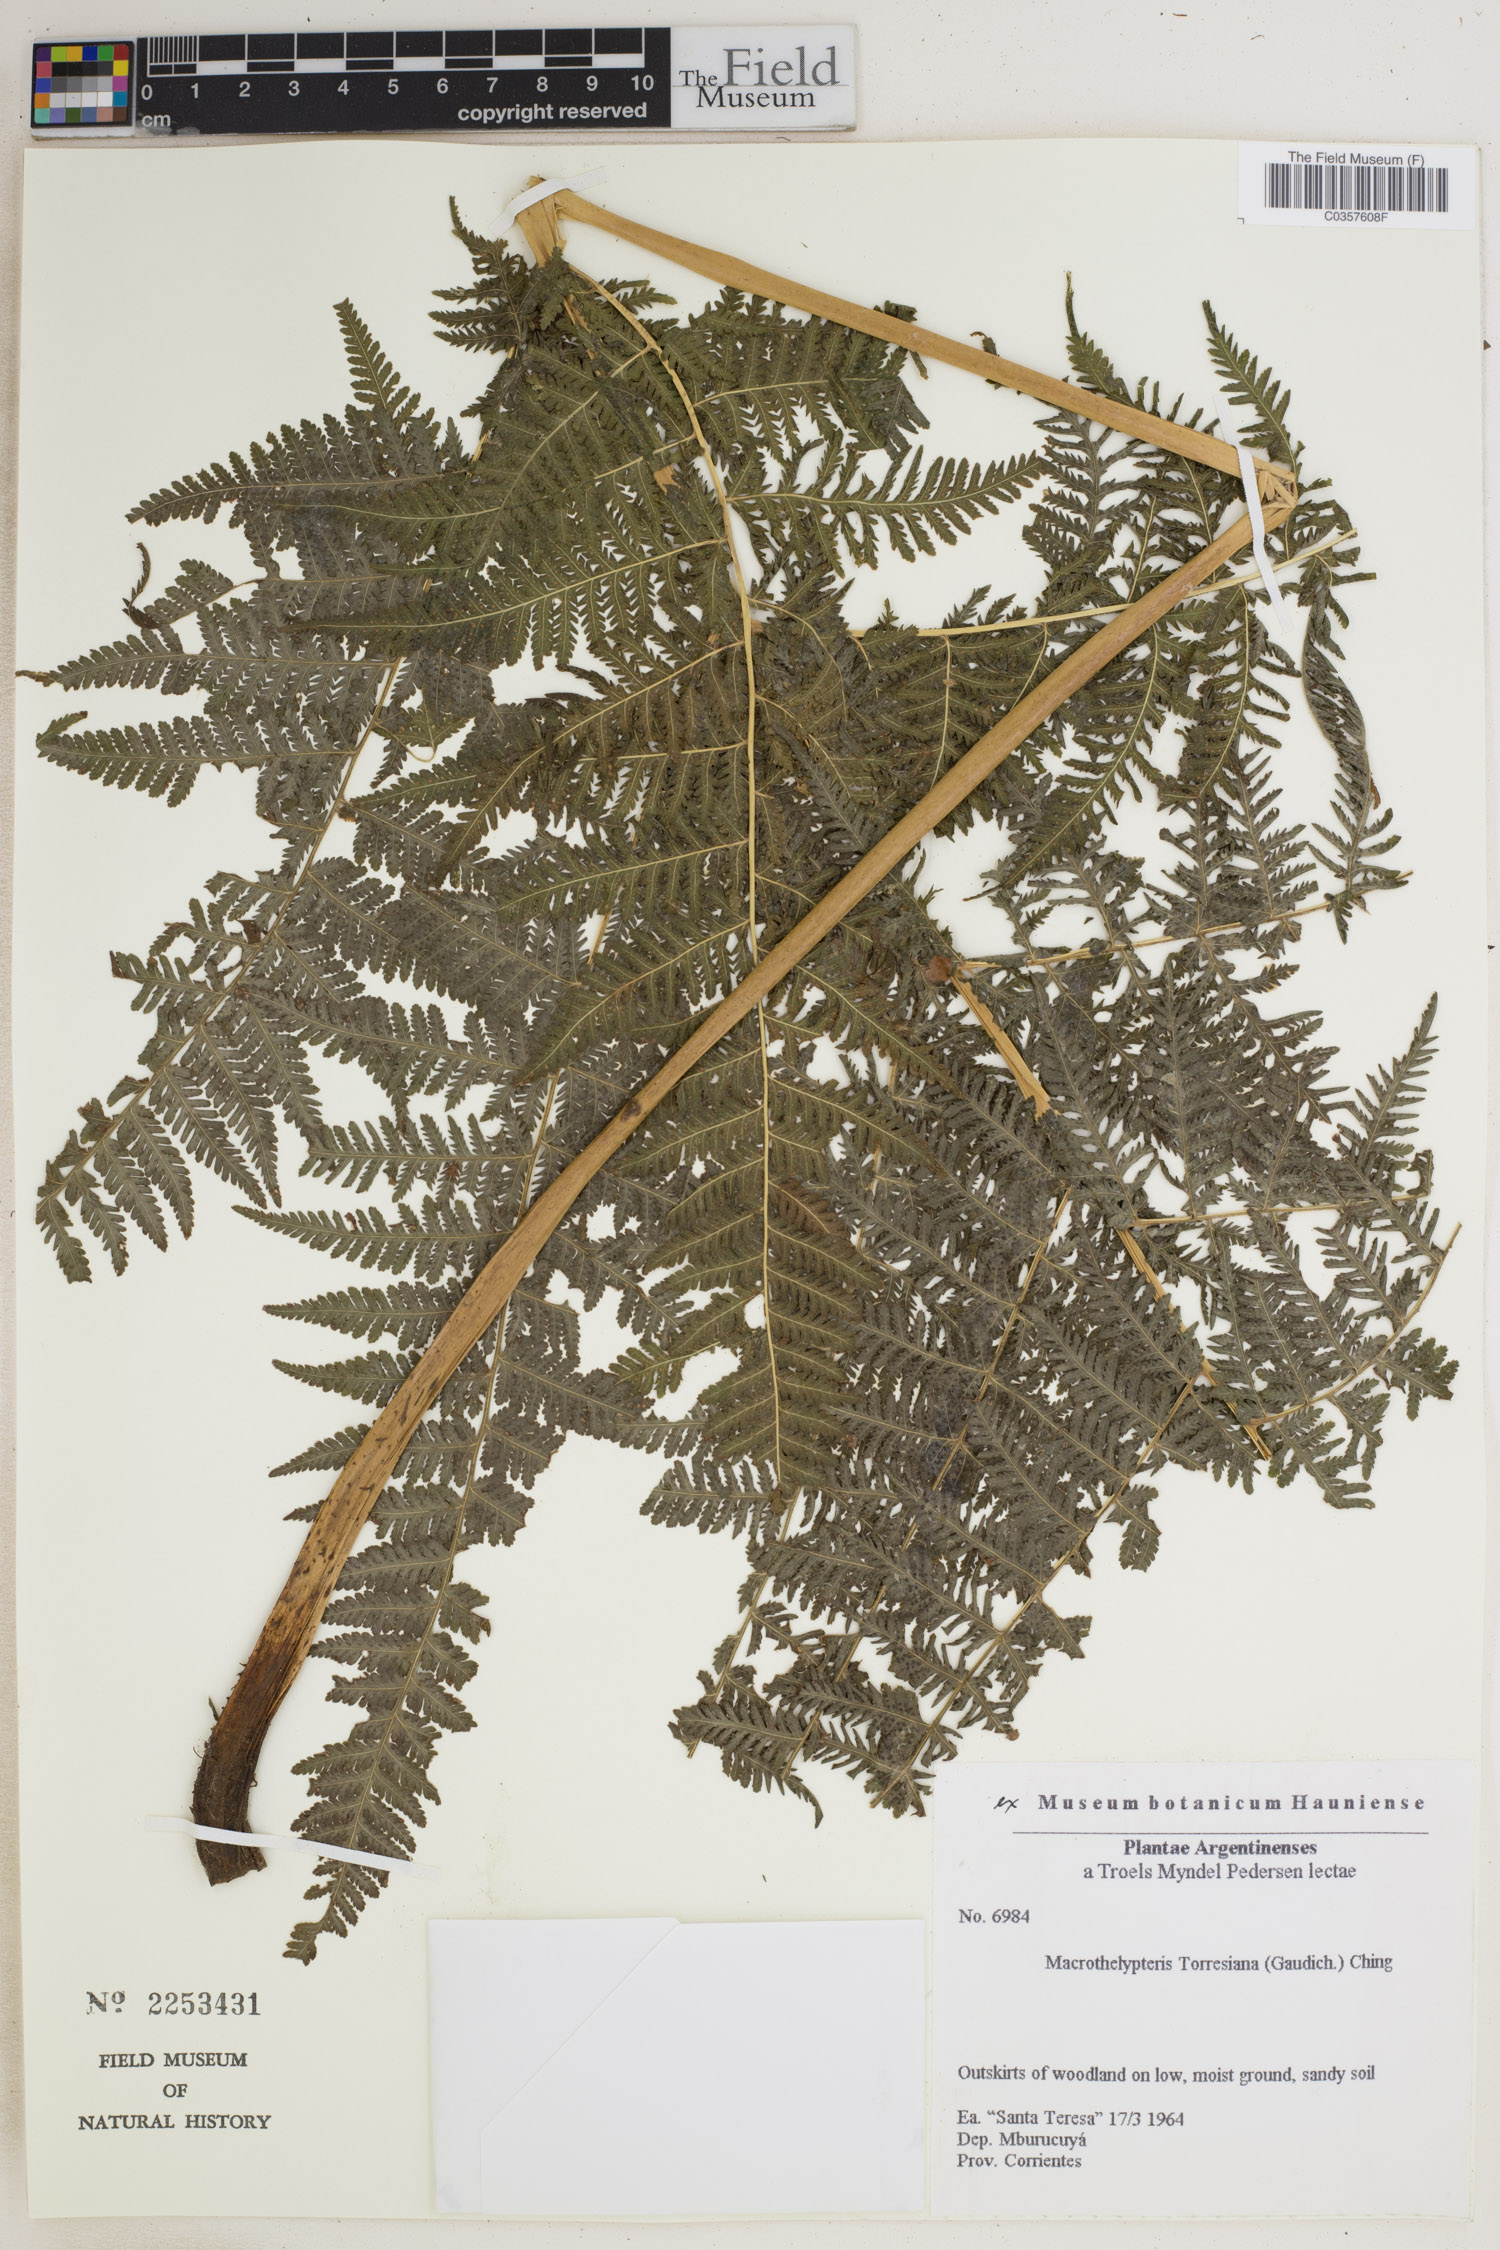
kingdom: Plantae
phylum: Tracheophyta
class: Polypodiopsida
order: Polypodiales
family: Thelypteridaceae
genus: Macrothelypteris
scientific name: Macrothelypteris torresiana
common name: Swordfern
